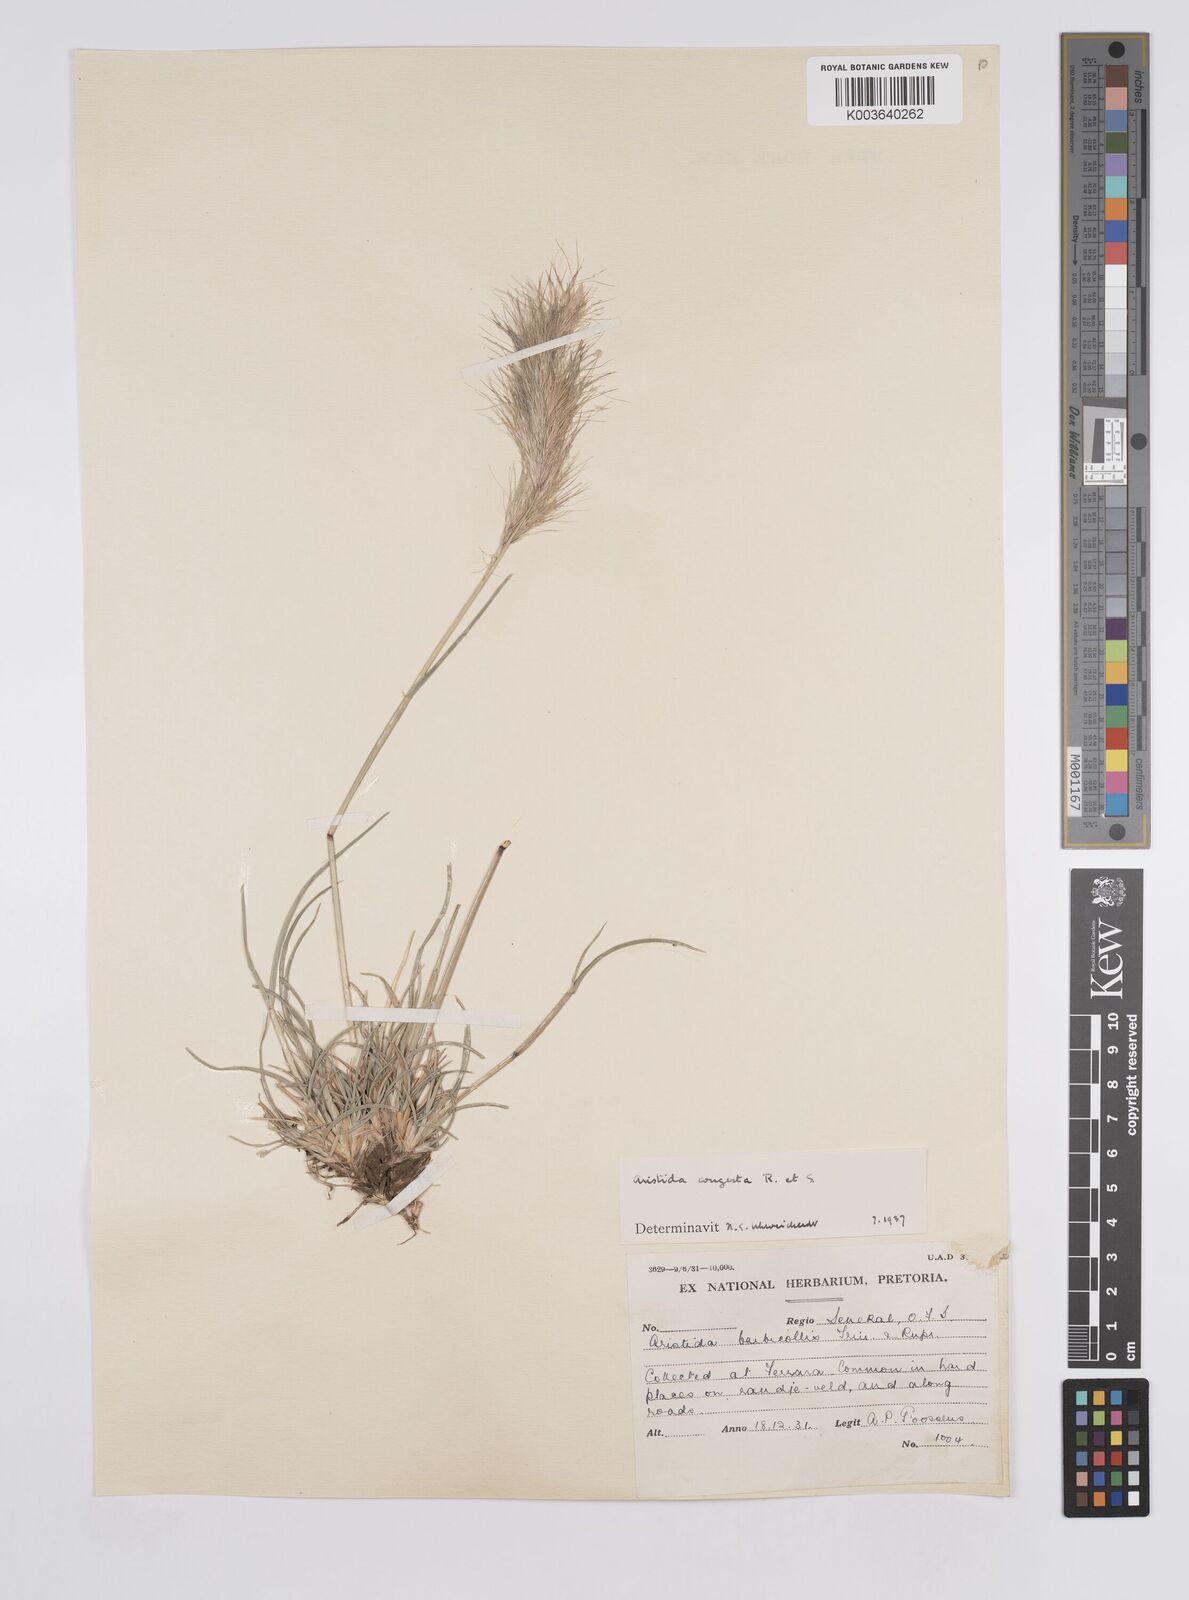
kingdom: Plantae
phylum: Tracheophyta
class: Liliopsida
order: Poales
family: Poaceae
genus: Aristida
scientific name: Aristida congesta
